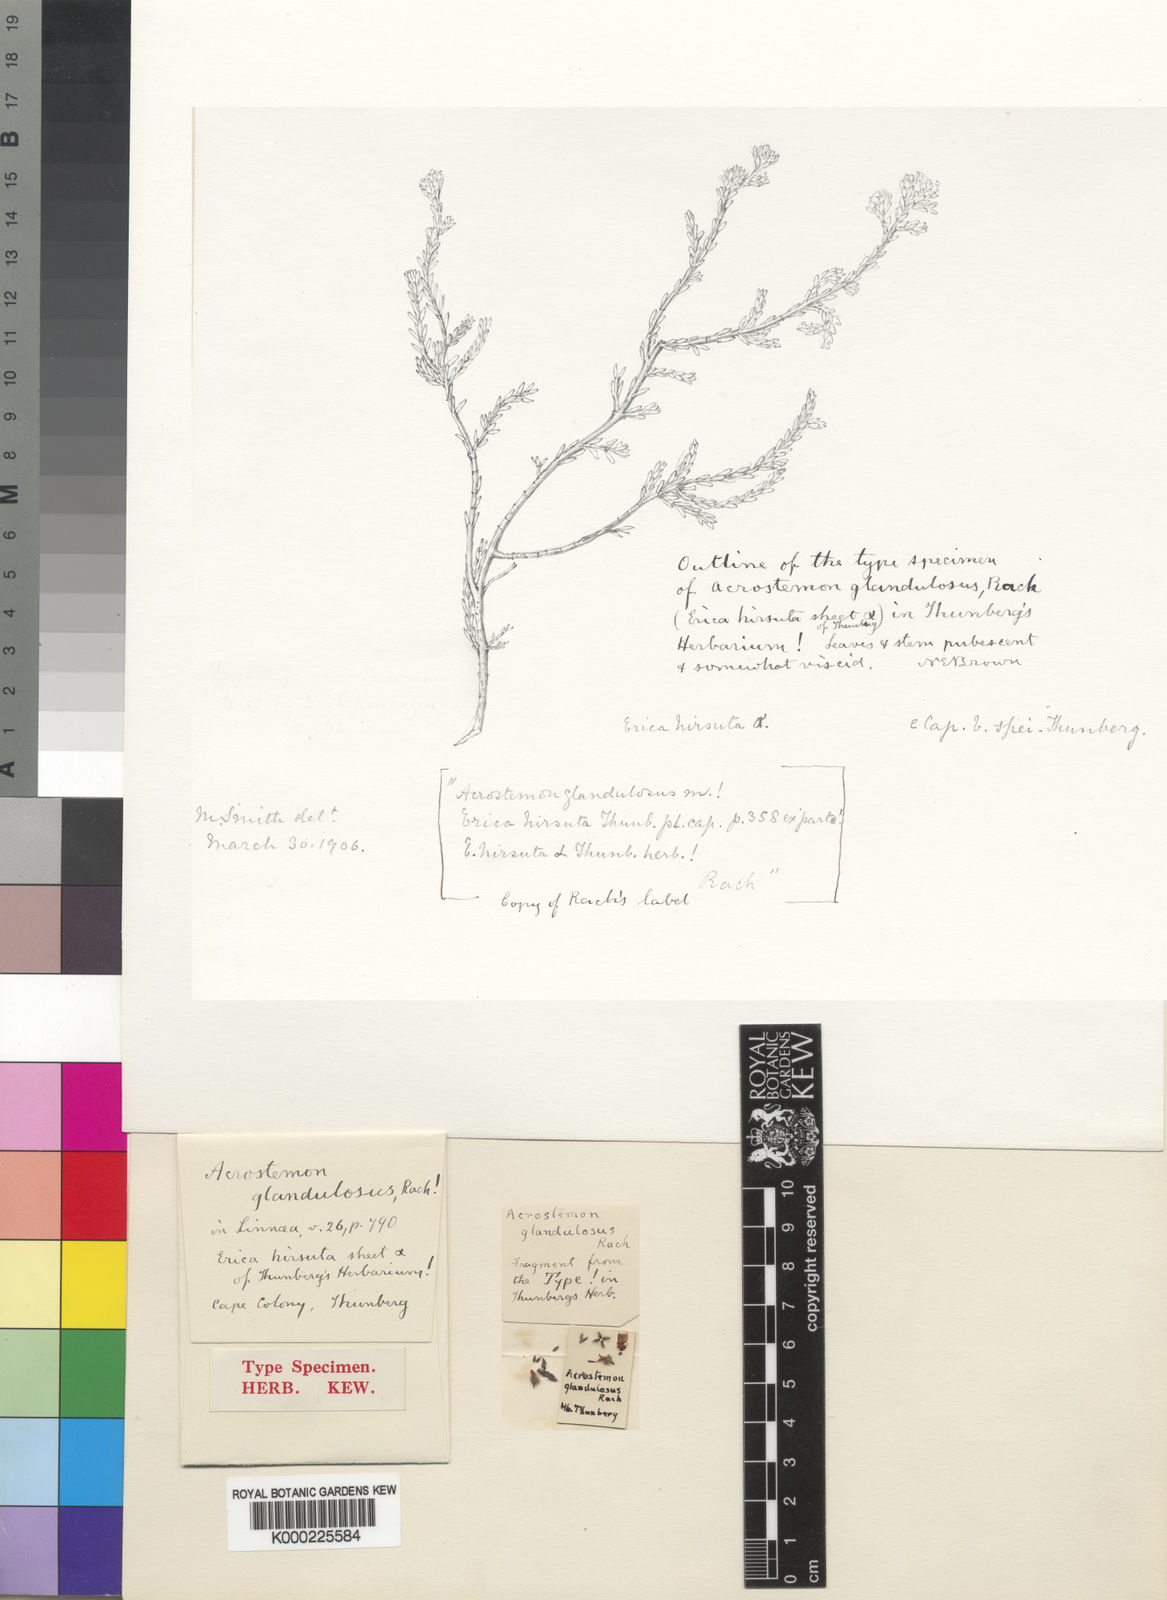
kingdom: Plantae
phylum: Tracheophyta
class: Magnoliopsida
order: Ericales
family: Ericaceae
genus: Erica
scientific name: Erica eriocephala
